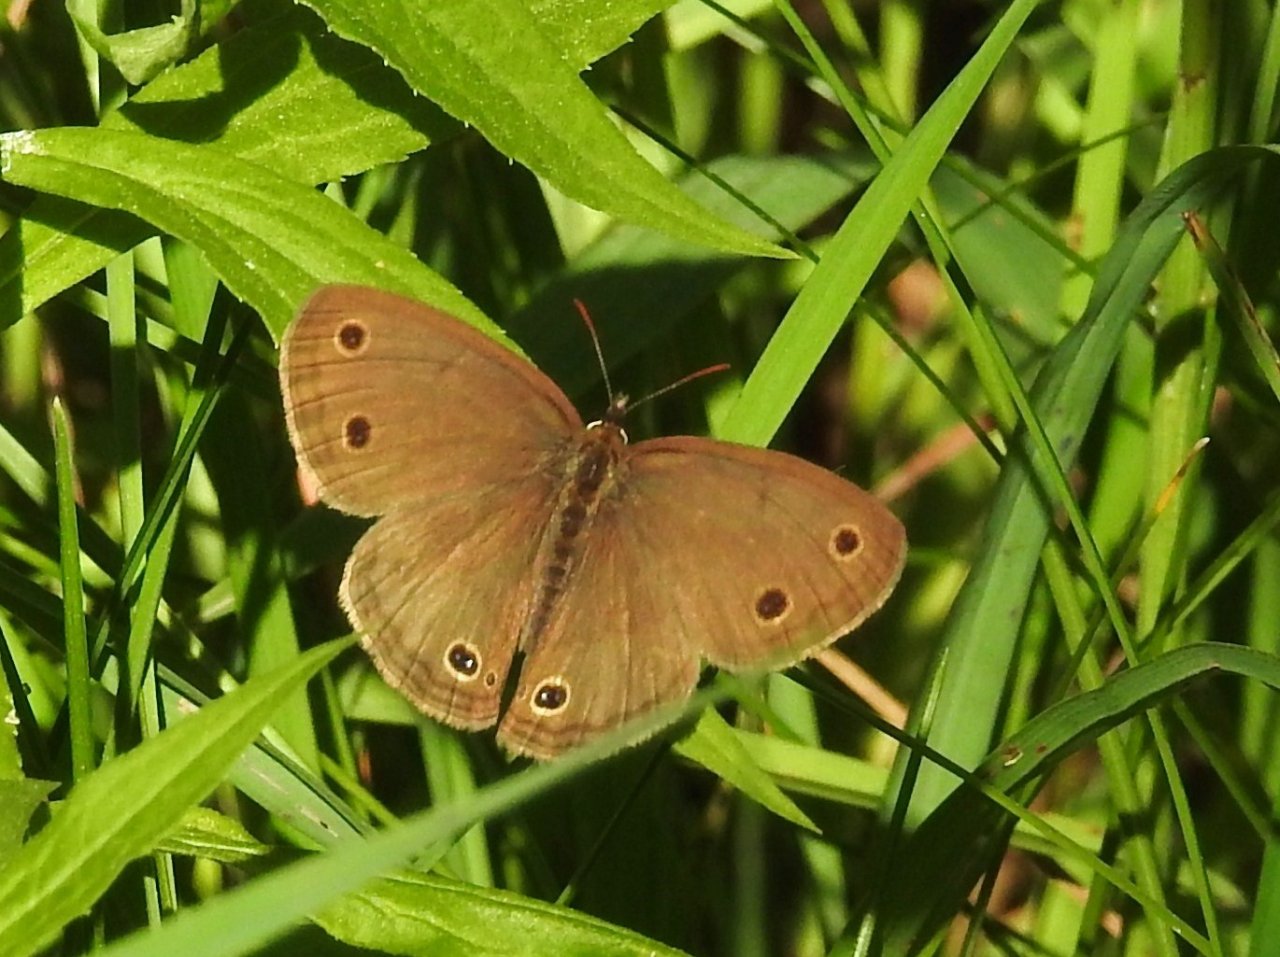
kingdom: Animalia
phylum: Arthropoda
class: Insecta
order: Lepidoptera
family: Nymphalidae
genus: Euptychia
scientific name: Euptychia cymela
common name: Little Wood Satyr
